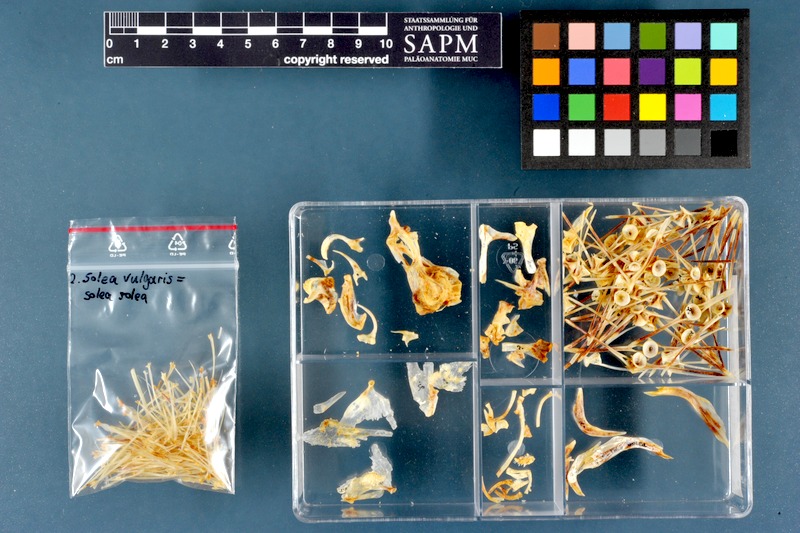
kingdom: Animalia
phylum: Chordata
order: Pleuronectiformes
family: Soleidae
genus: Solea
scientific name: Solea solea
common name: Sole
